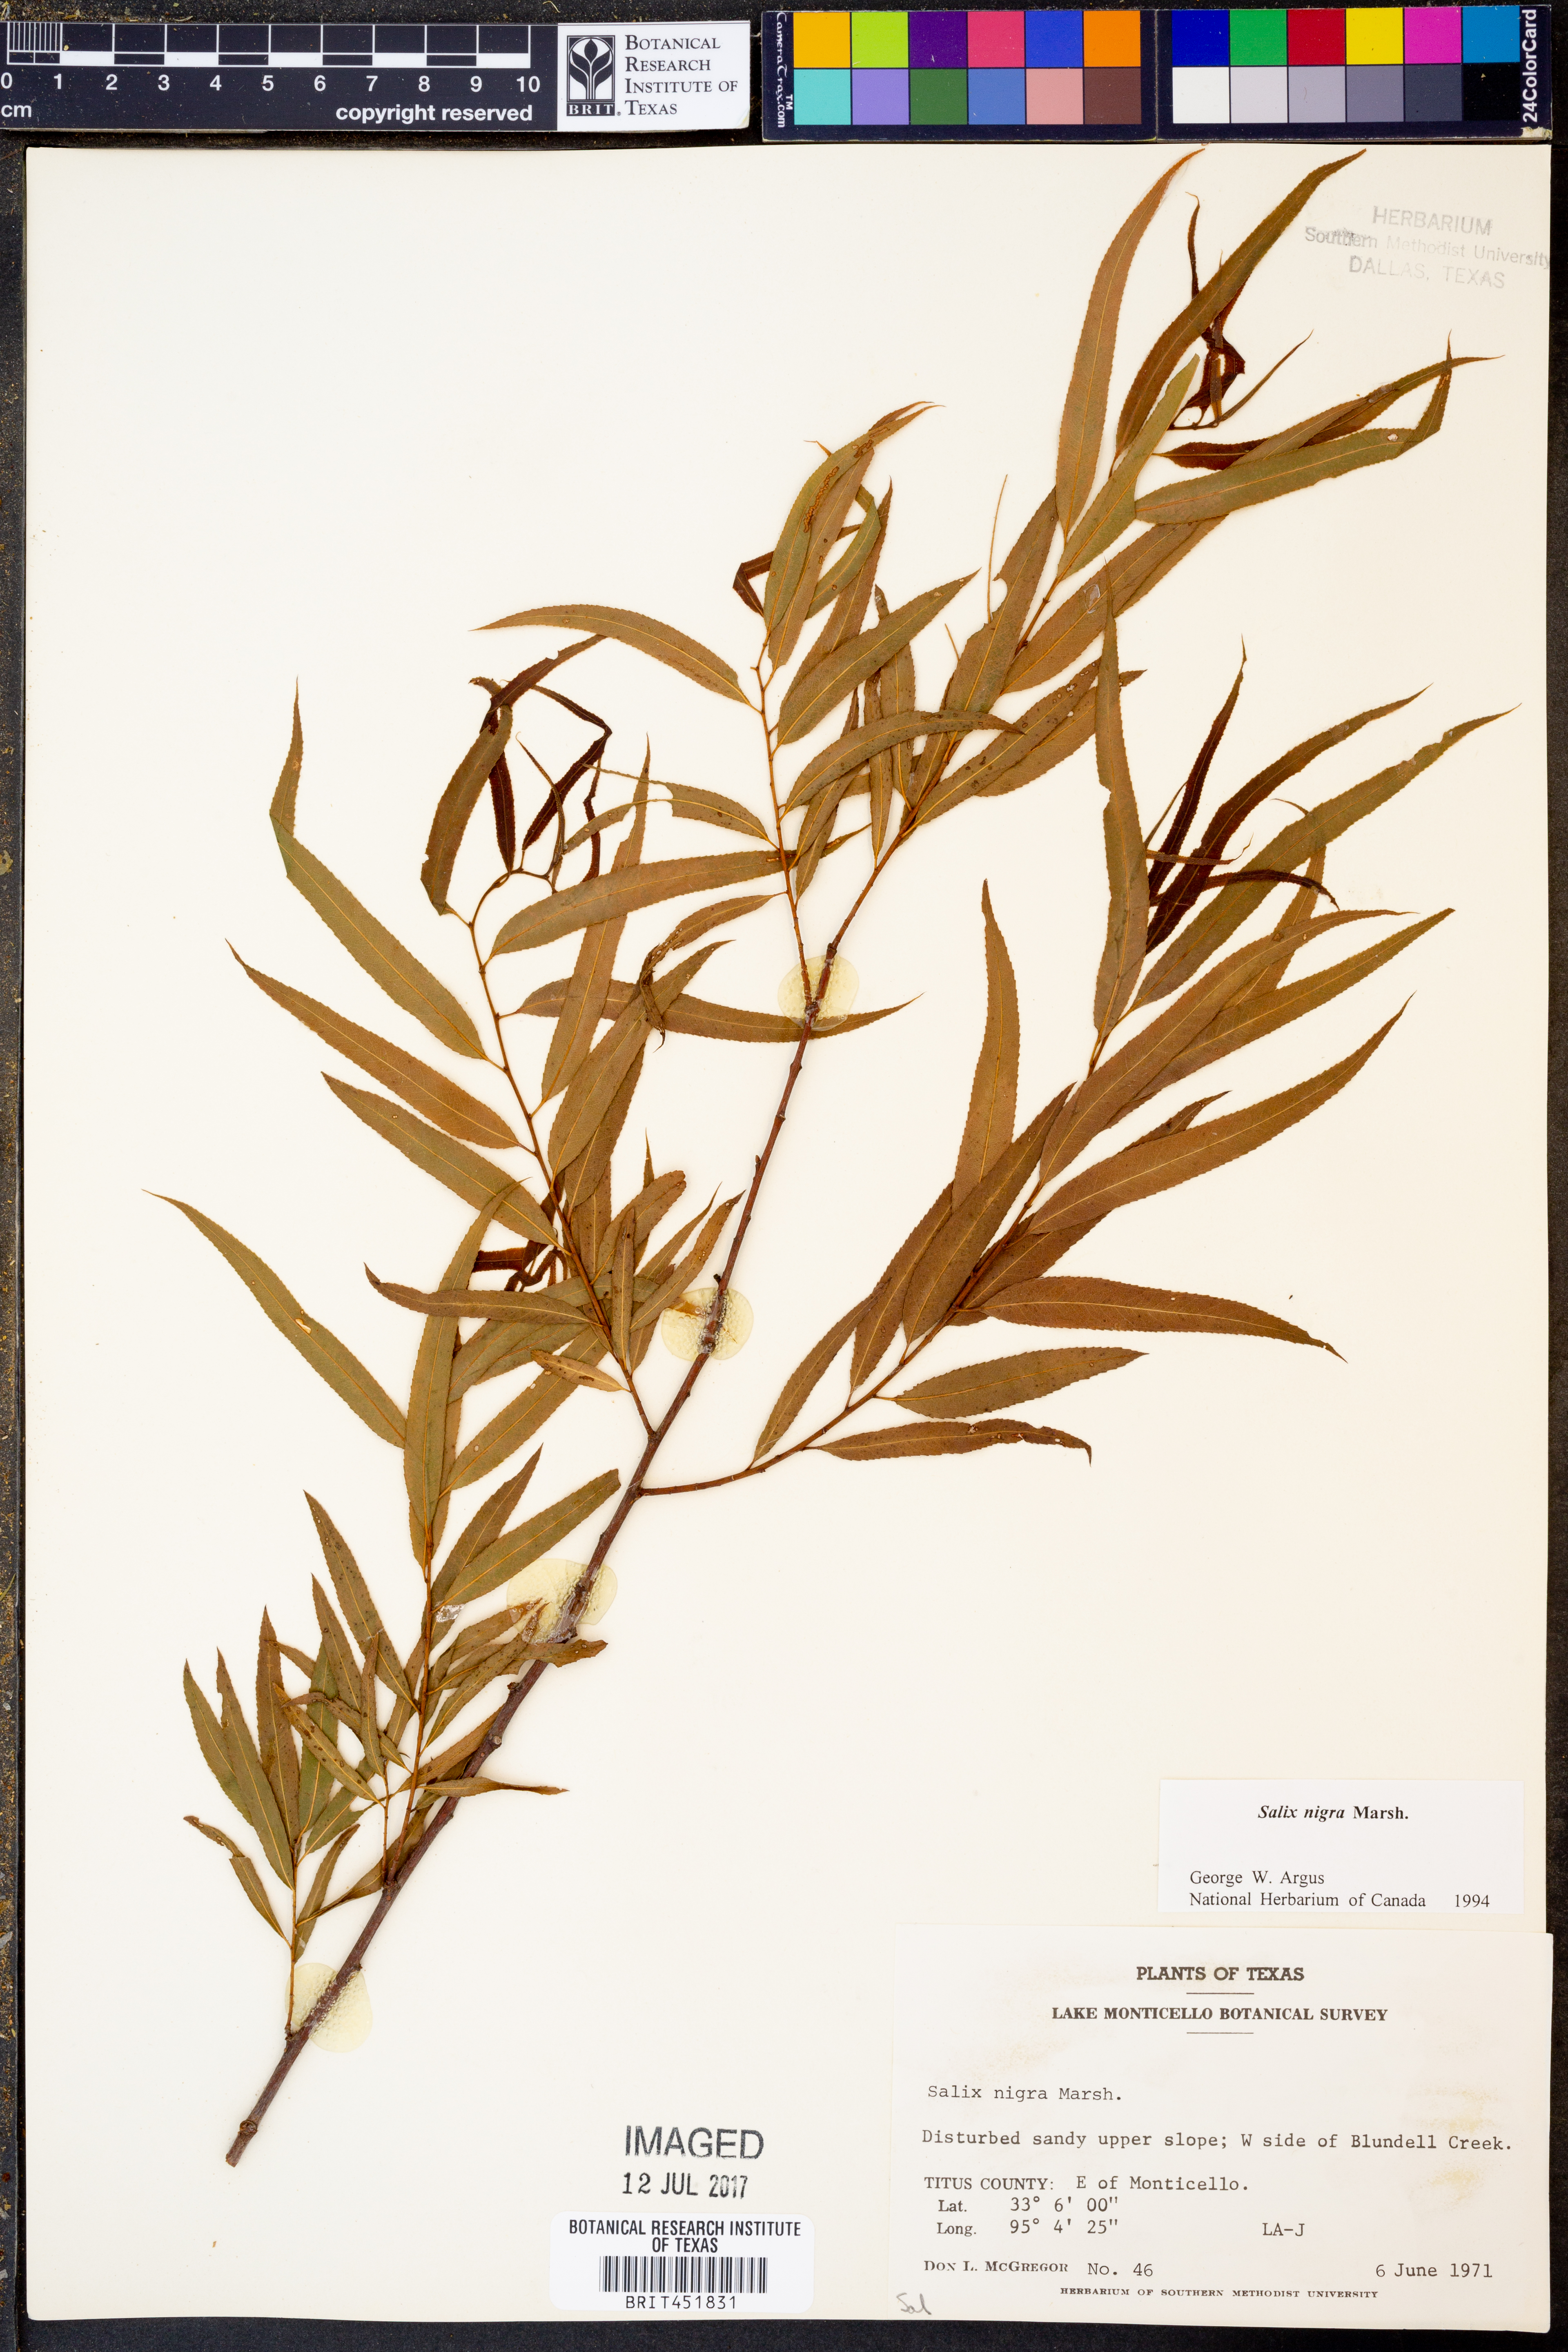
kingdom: Plantae
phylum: Tracheophyta
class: Magnoliopsida
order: Malpighiales
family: Salicaceae
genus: Salix
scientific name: Salix nigra
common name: Black willow
